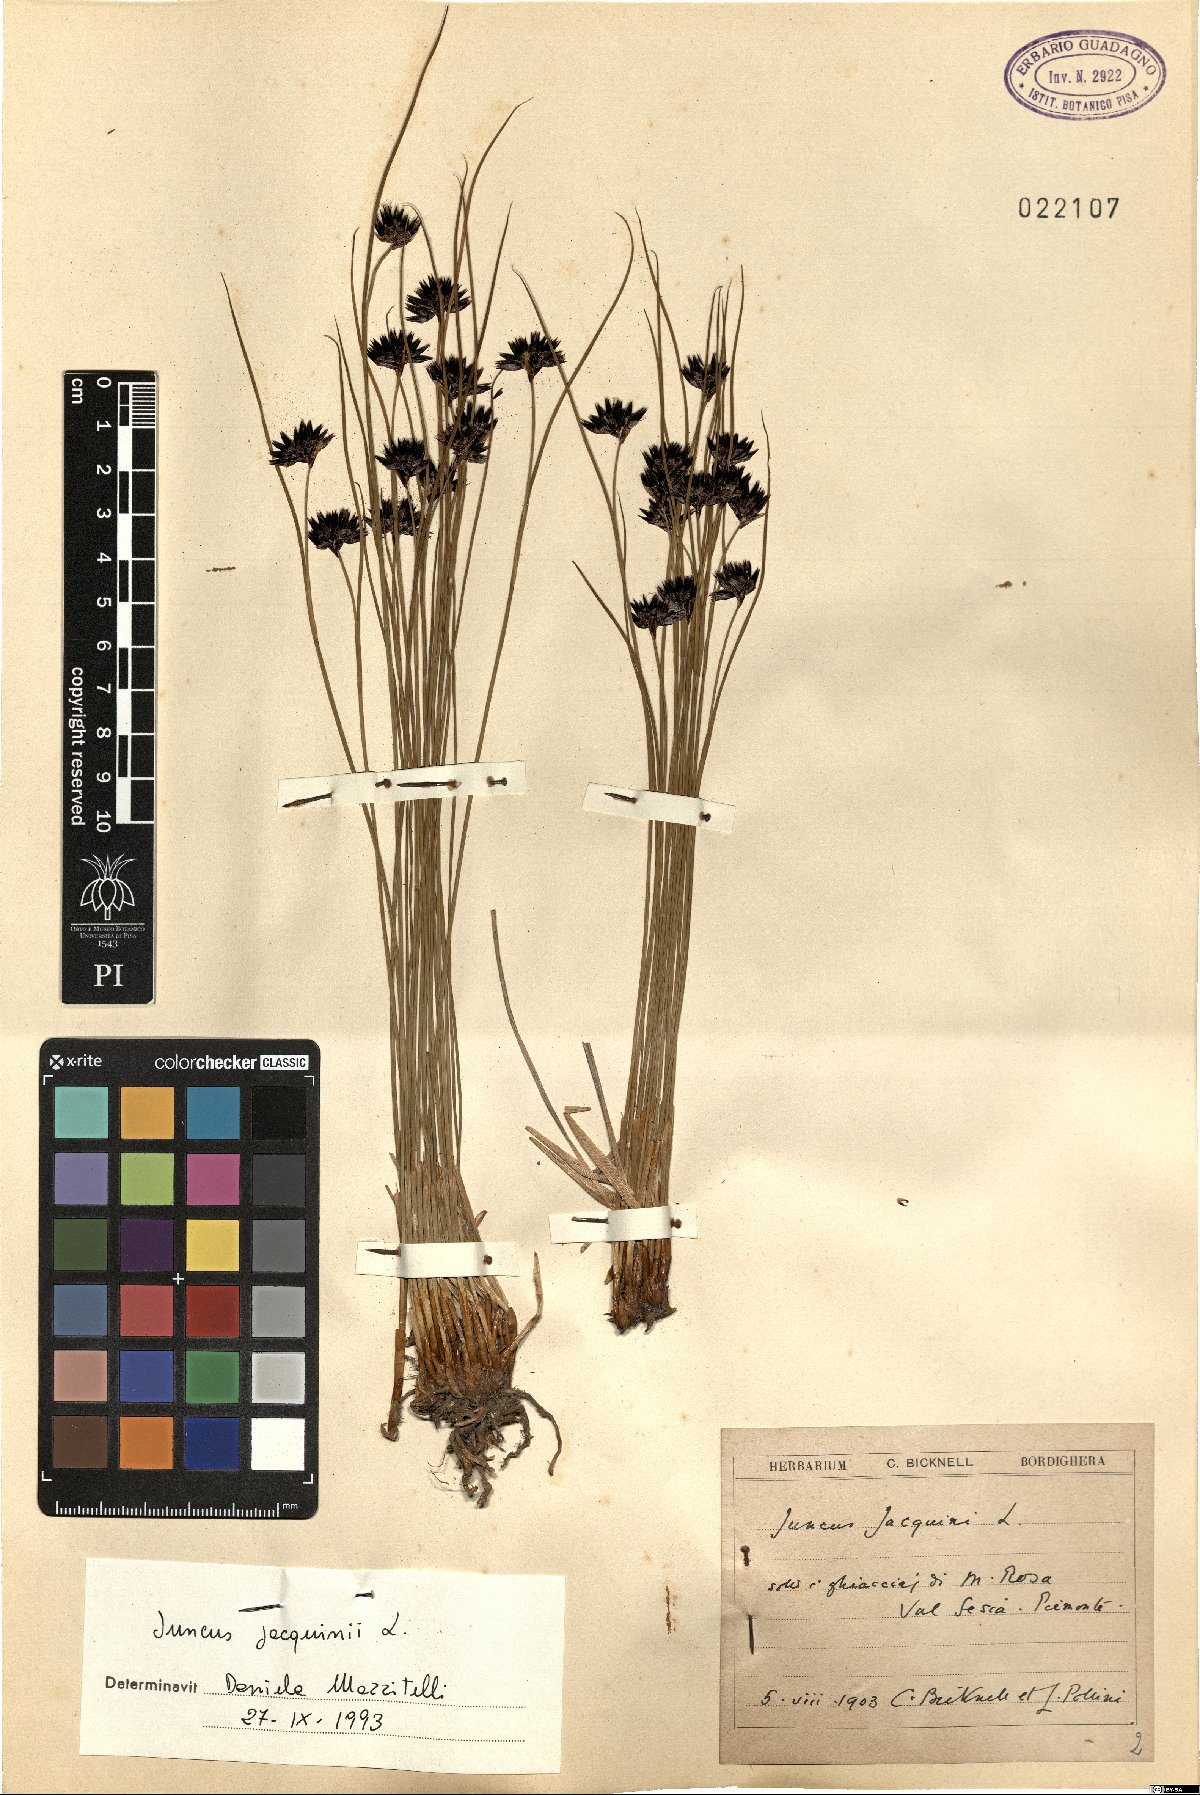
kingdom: Plantae
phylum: Tracheophyta
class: Liliopsida
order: Poales
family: Juncaceae
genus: Juncus
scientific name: Juncus jacquinii
